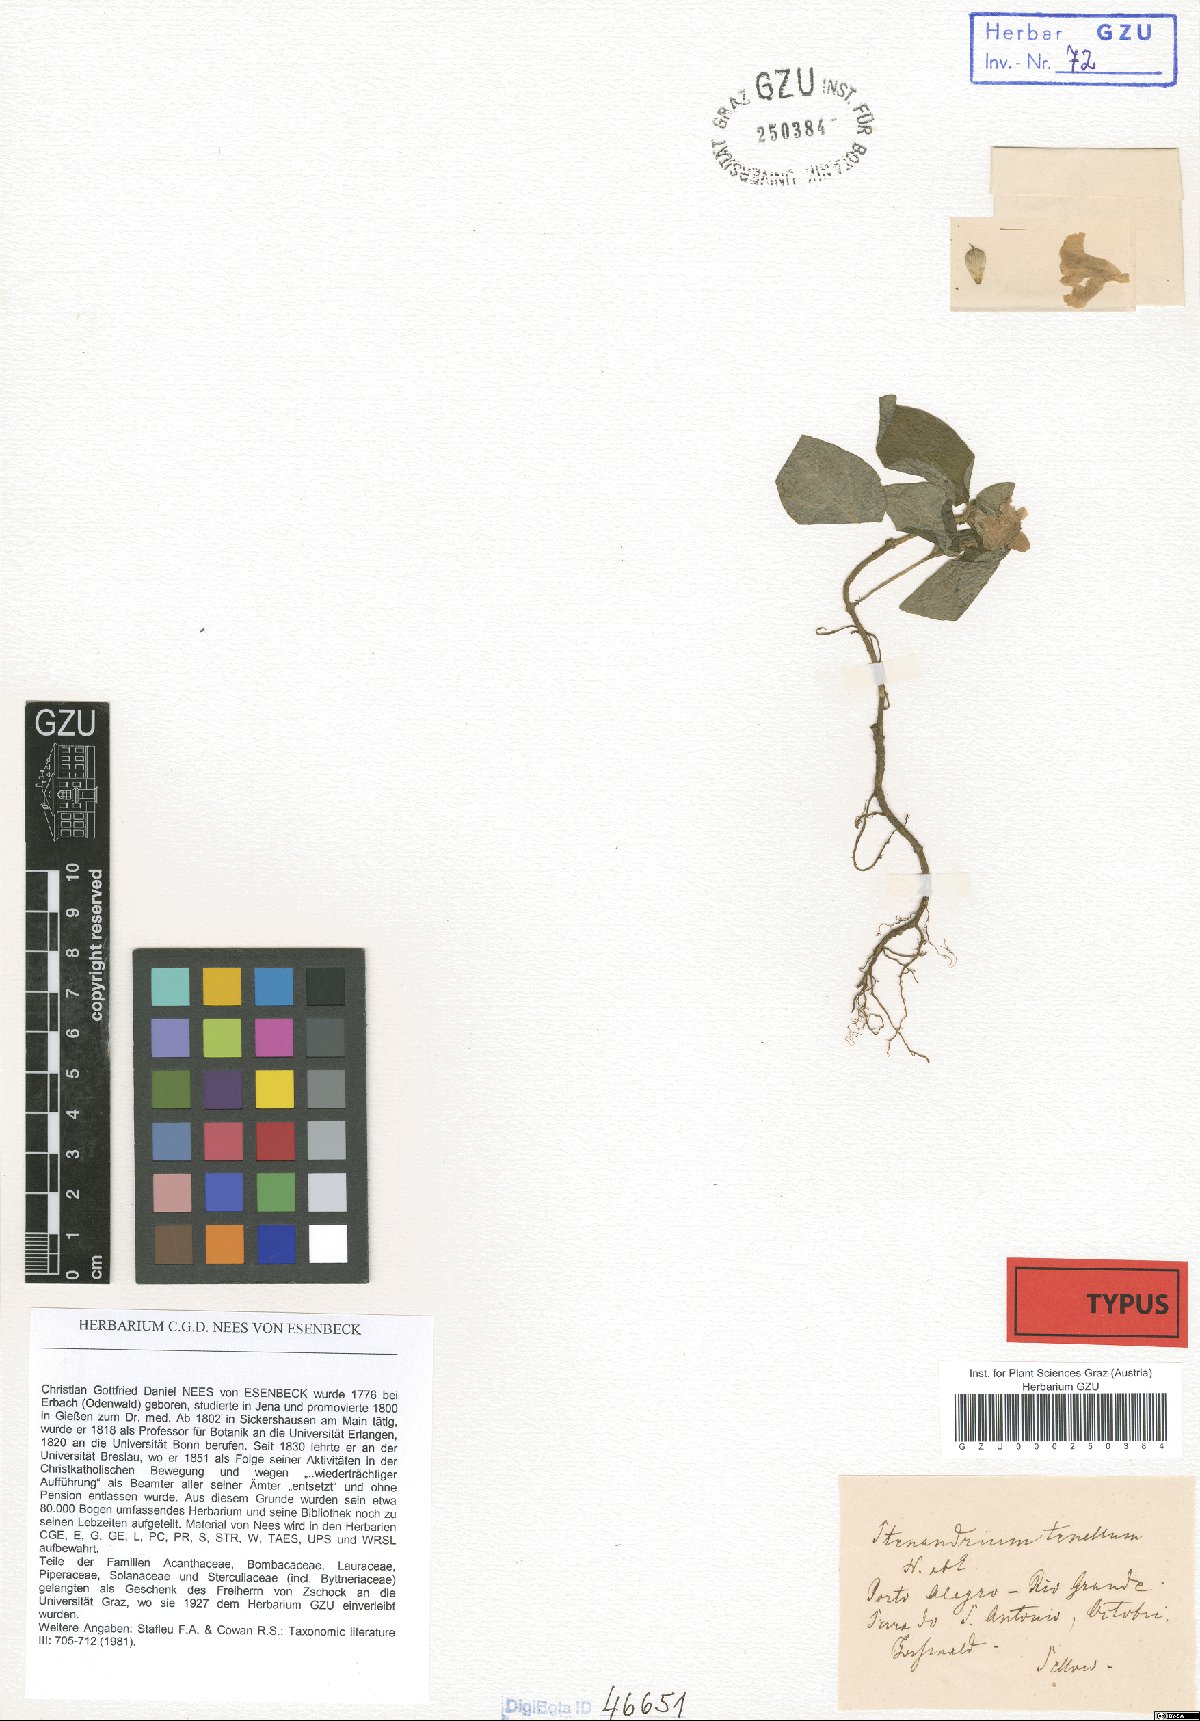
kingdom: Plantae
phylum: Tracheophyta
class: Magnoliopsida
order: Lamiales
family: Acanthaceae
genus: Stenandrium
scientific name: Stenandrium tenellum
